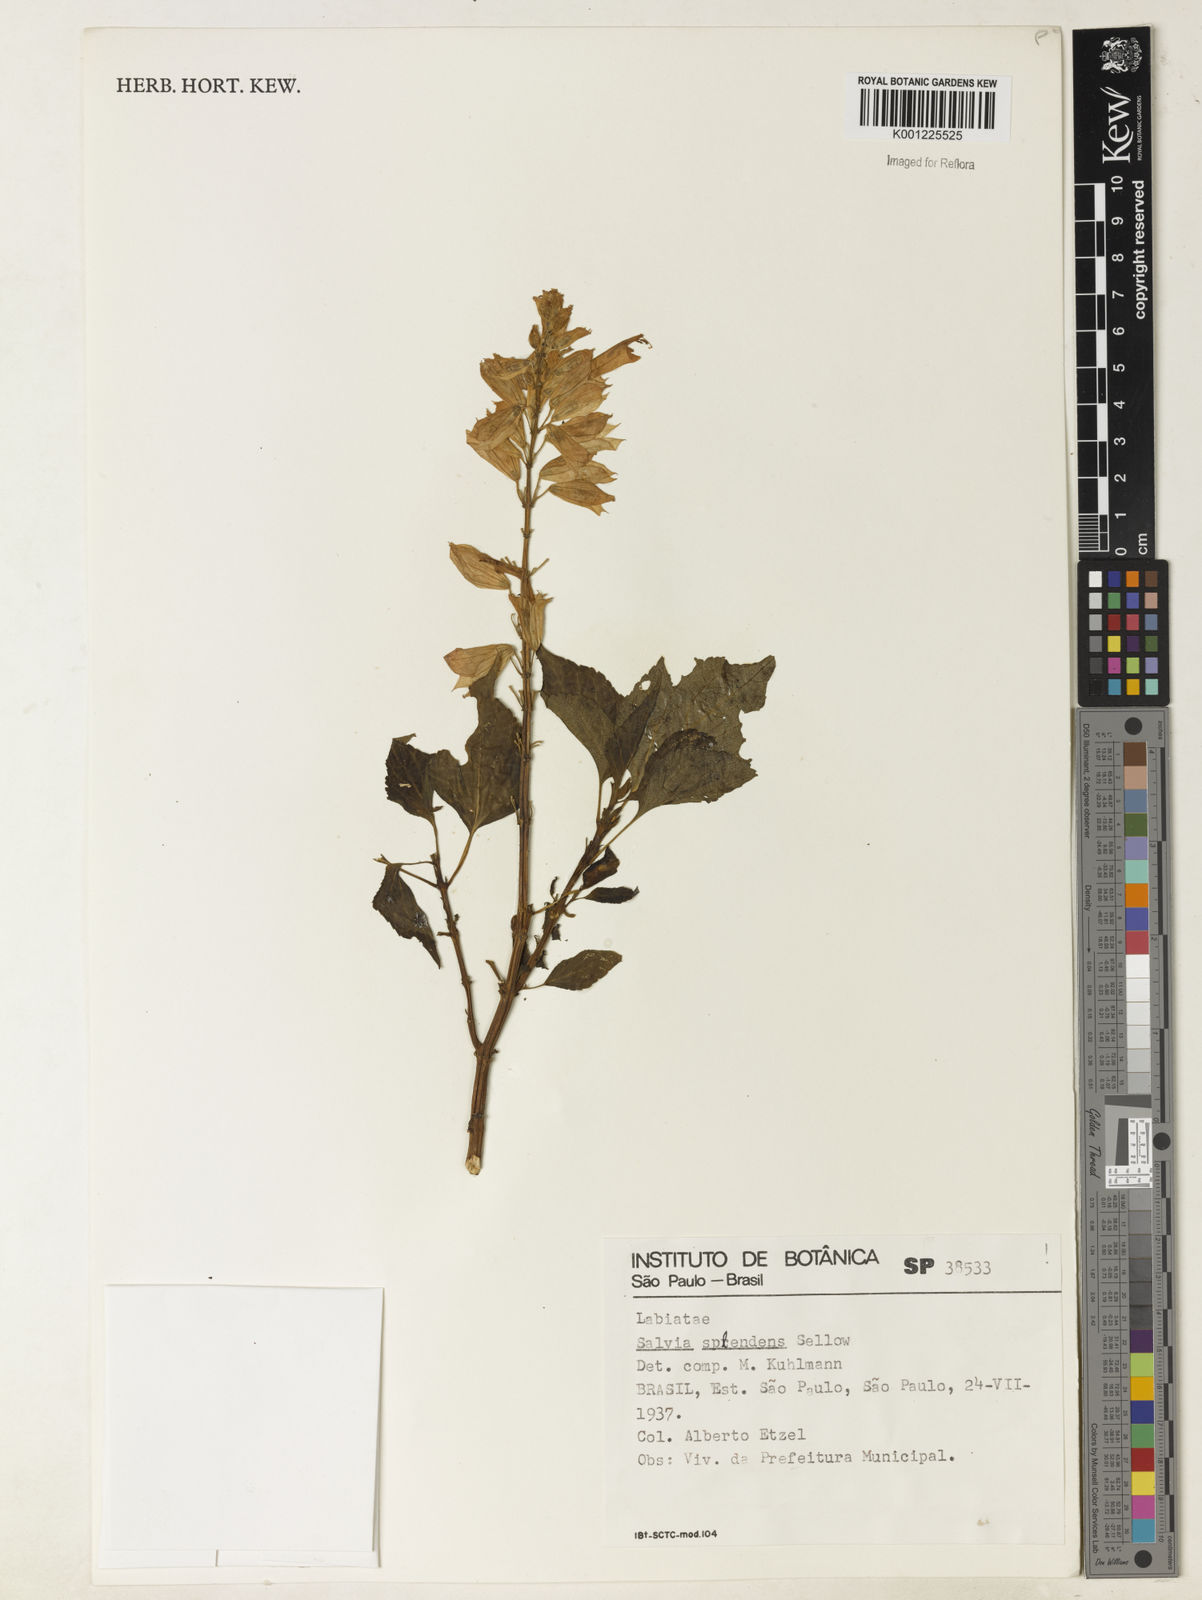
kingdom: Plantae
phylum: Tracheophyta
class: Magnoliopsida
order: Lamiales
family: Lamiaceae
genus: Salvia
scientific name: Salvia
